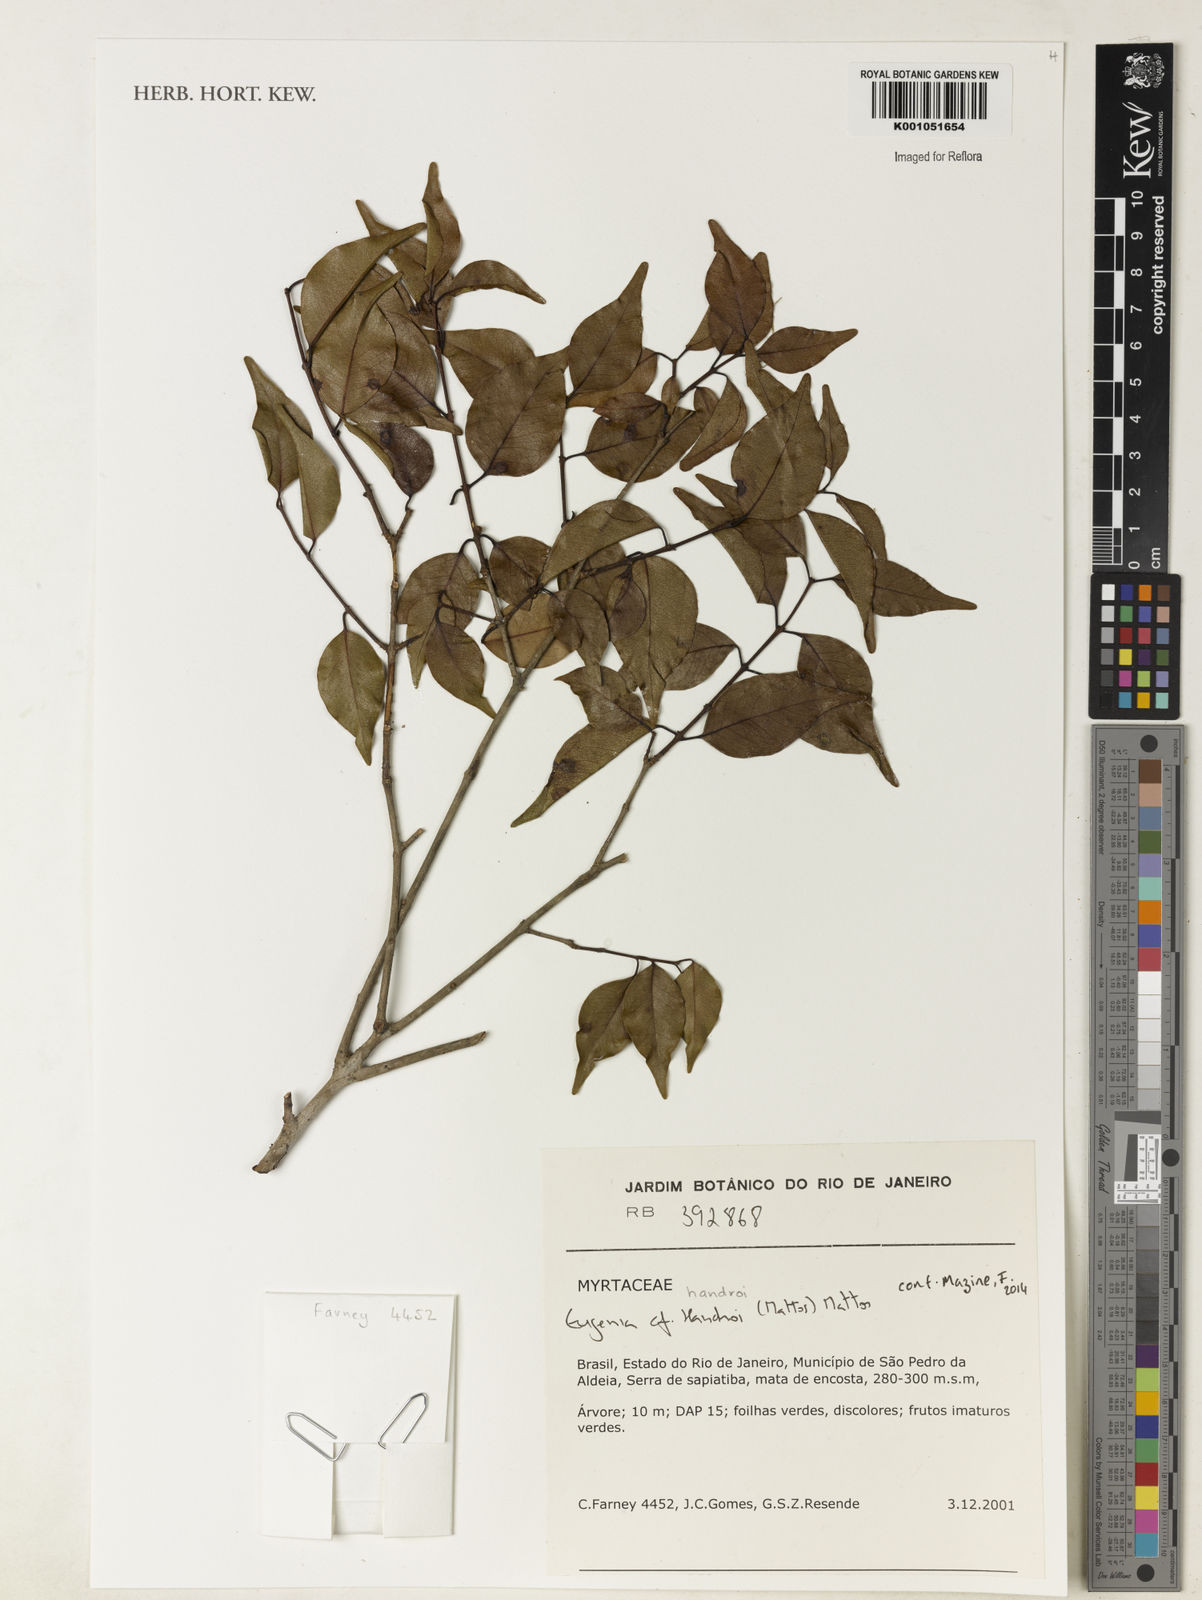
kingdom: Plantae
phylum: Tracheophyta
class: Magnoliopsida
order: Myrtales
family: Myrtaceae
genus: Eugenia
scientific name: Eugenia handroi
